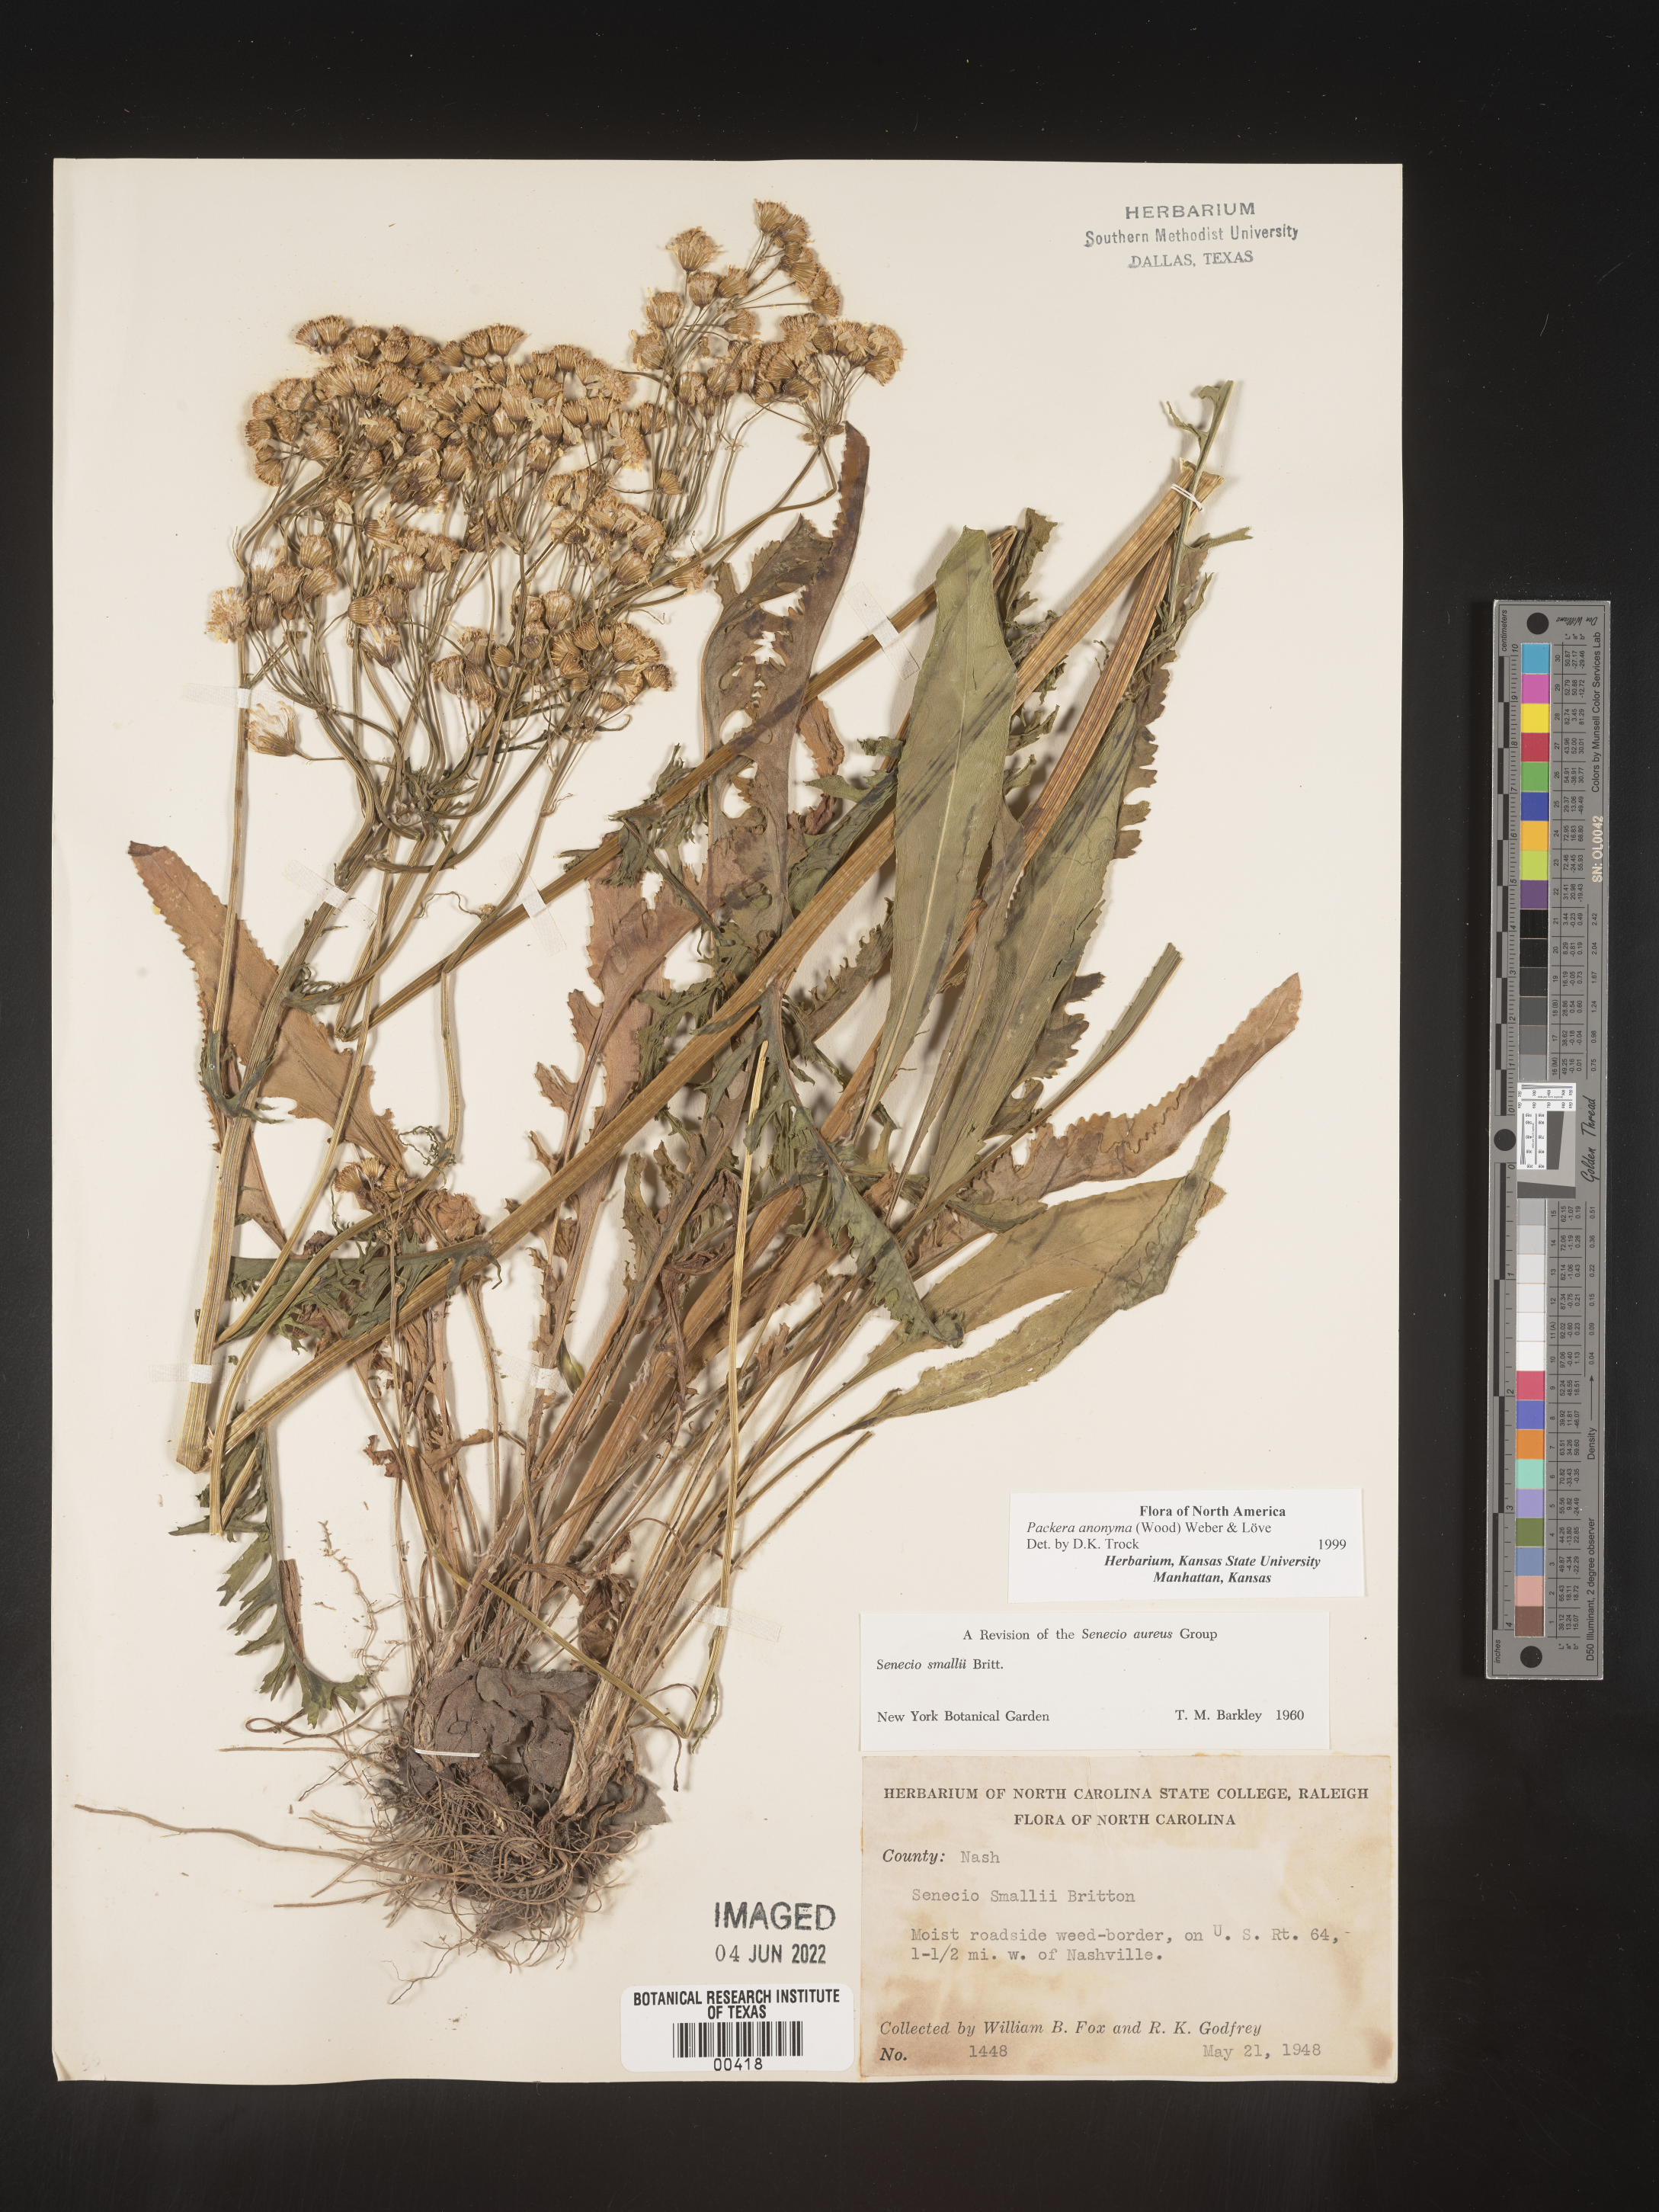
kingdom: Plantae
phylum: Tracheophyta
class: Magnoliopsida
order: Asterales
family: Asteraceae
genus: Packera
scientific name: Packera anonyma
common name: Small ragwort
